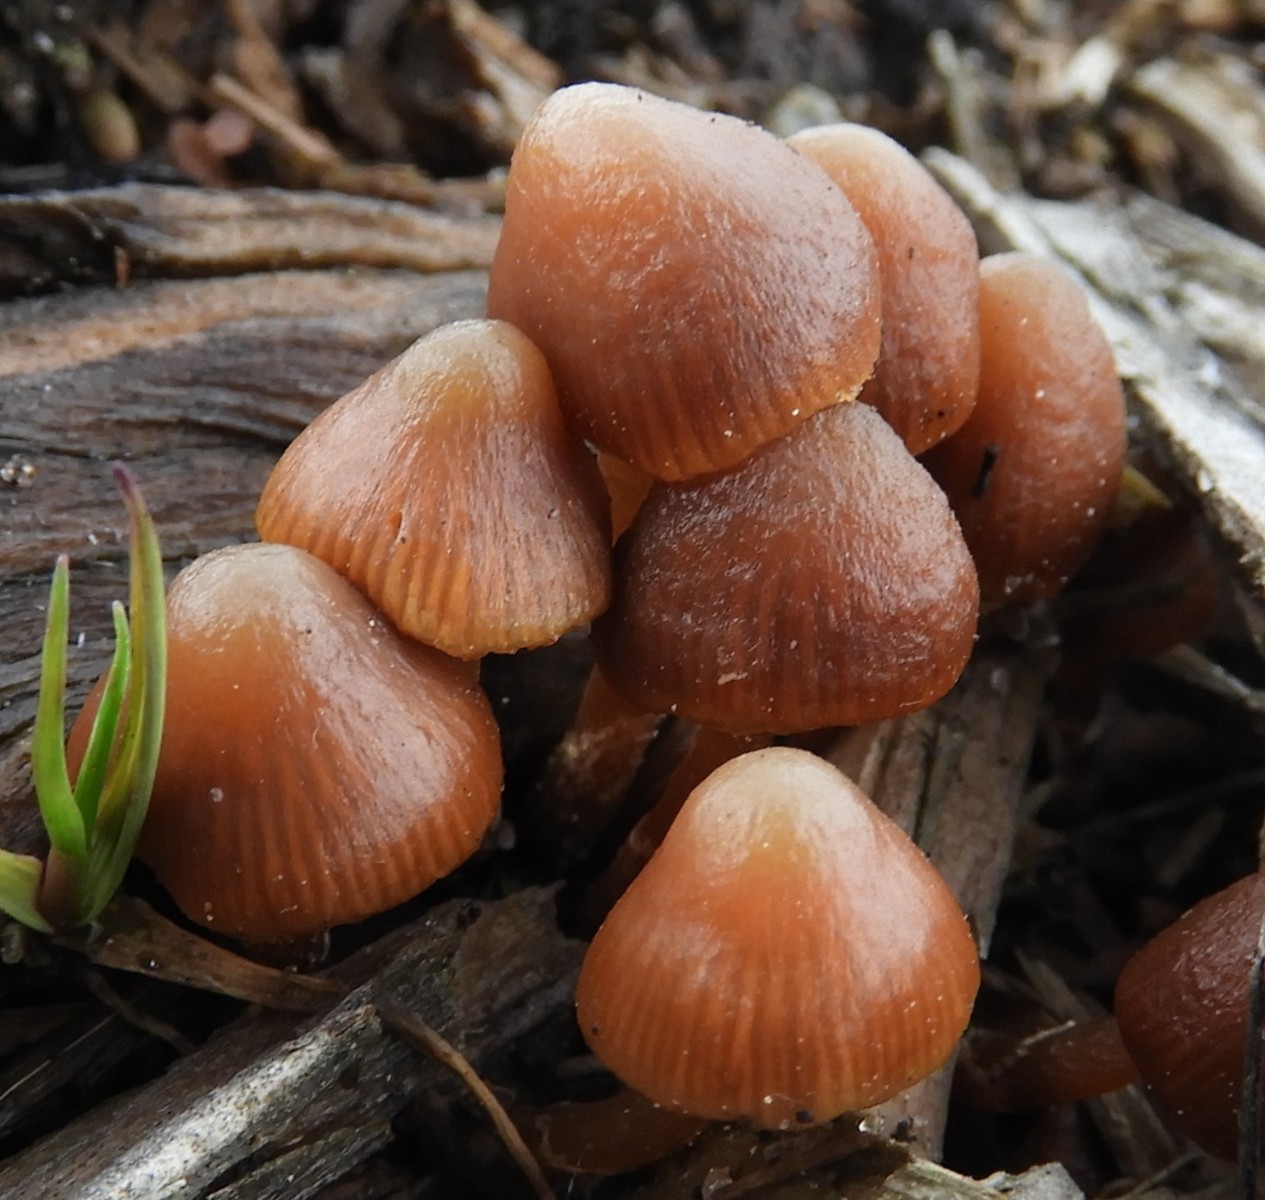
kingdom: Fungi
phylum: Basidiomycota
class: Agaricomycetes
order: Agaricales
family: Tubariaceae
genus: Tubaria
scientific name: Tubaria furfuracea
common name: kliddet fnughat
